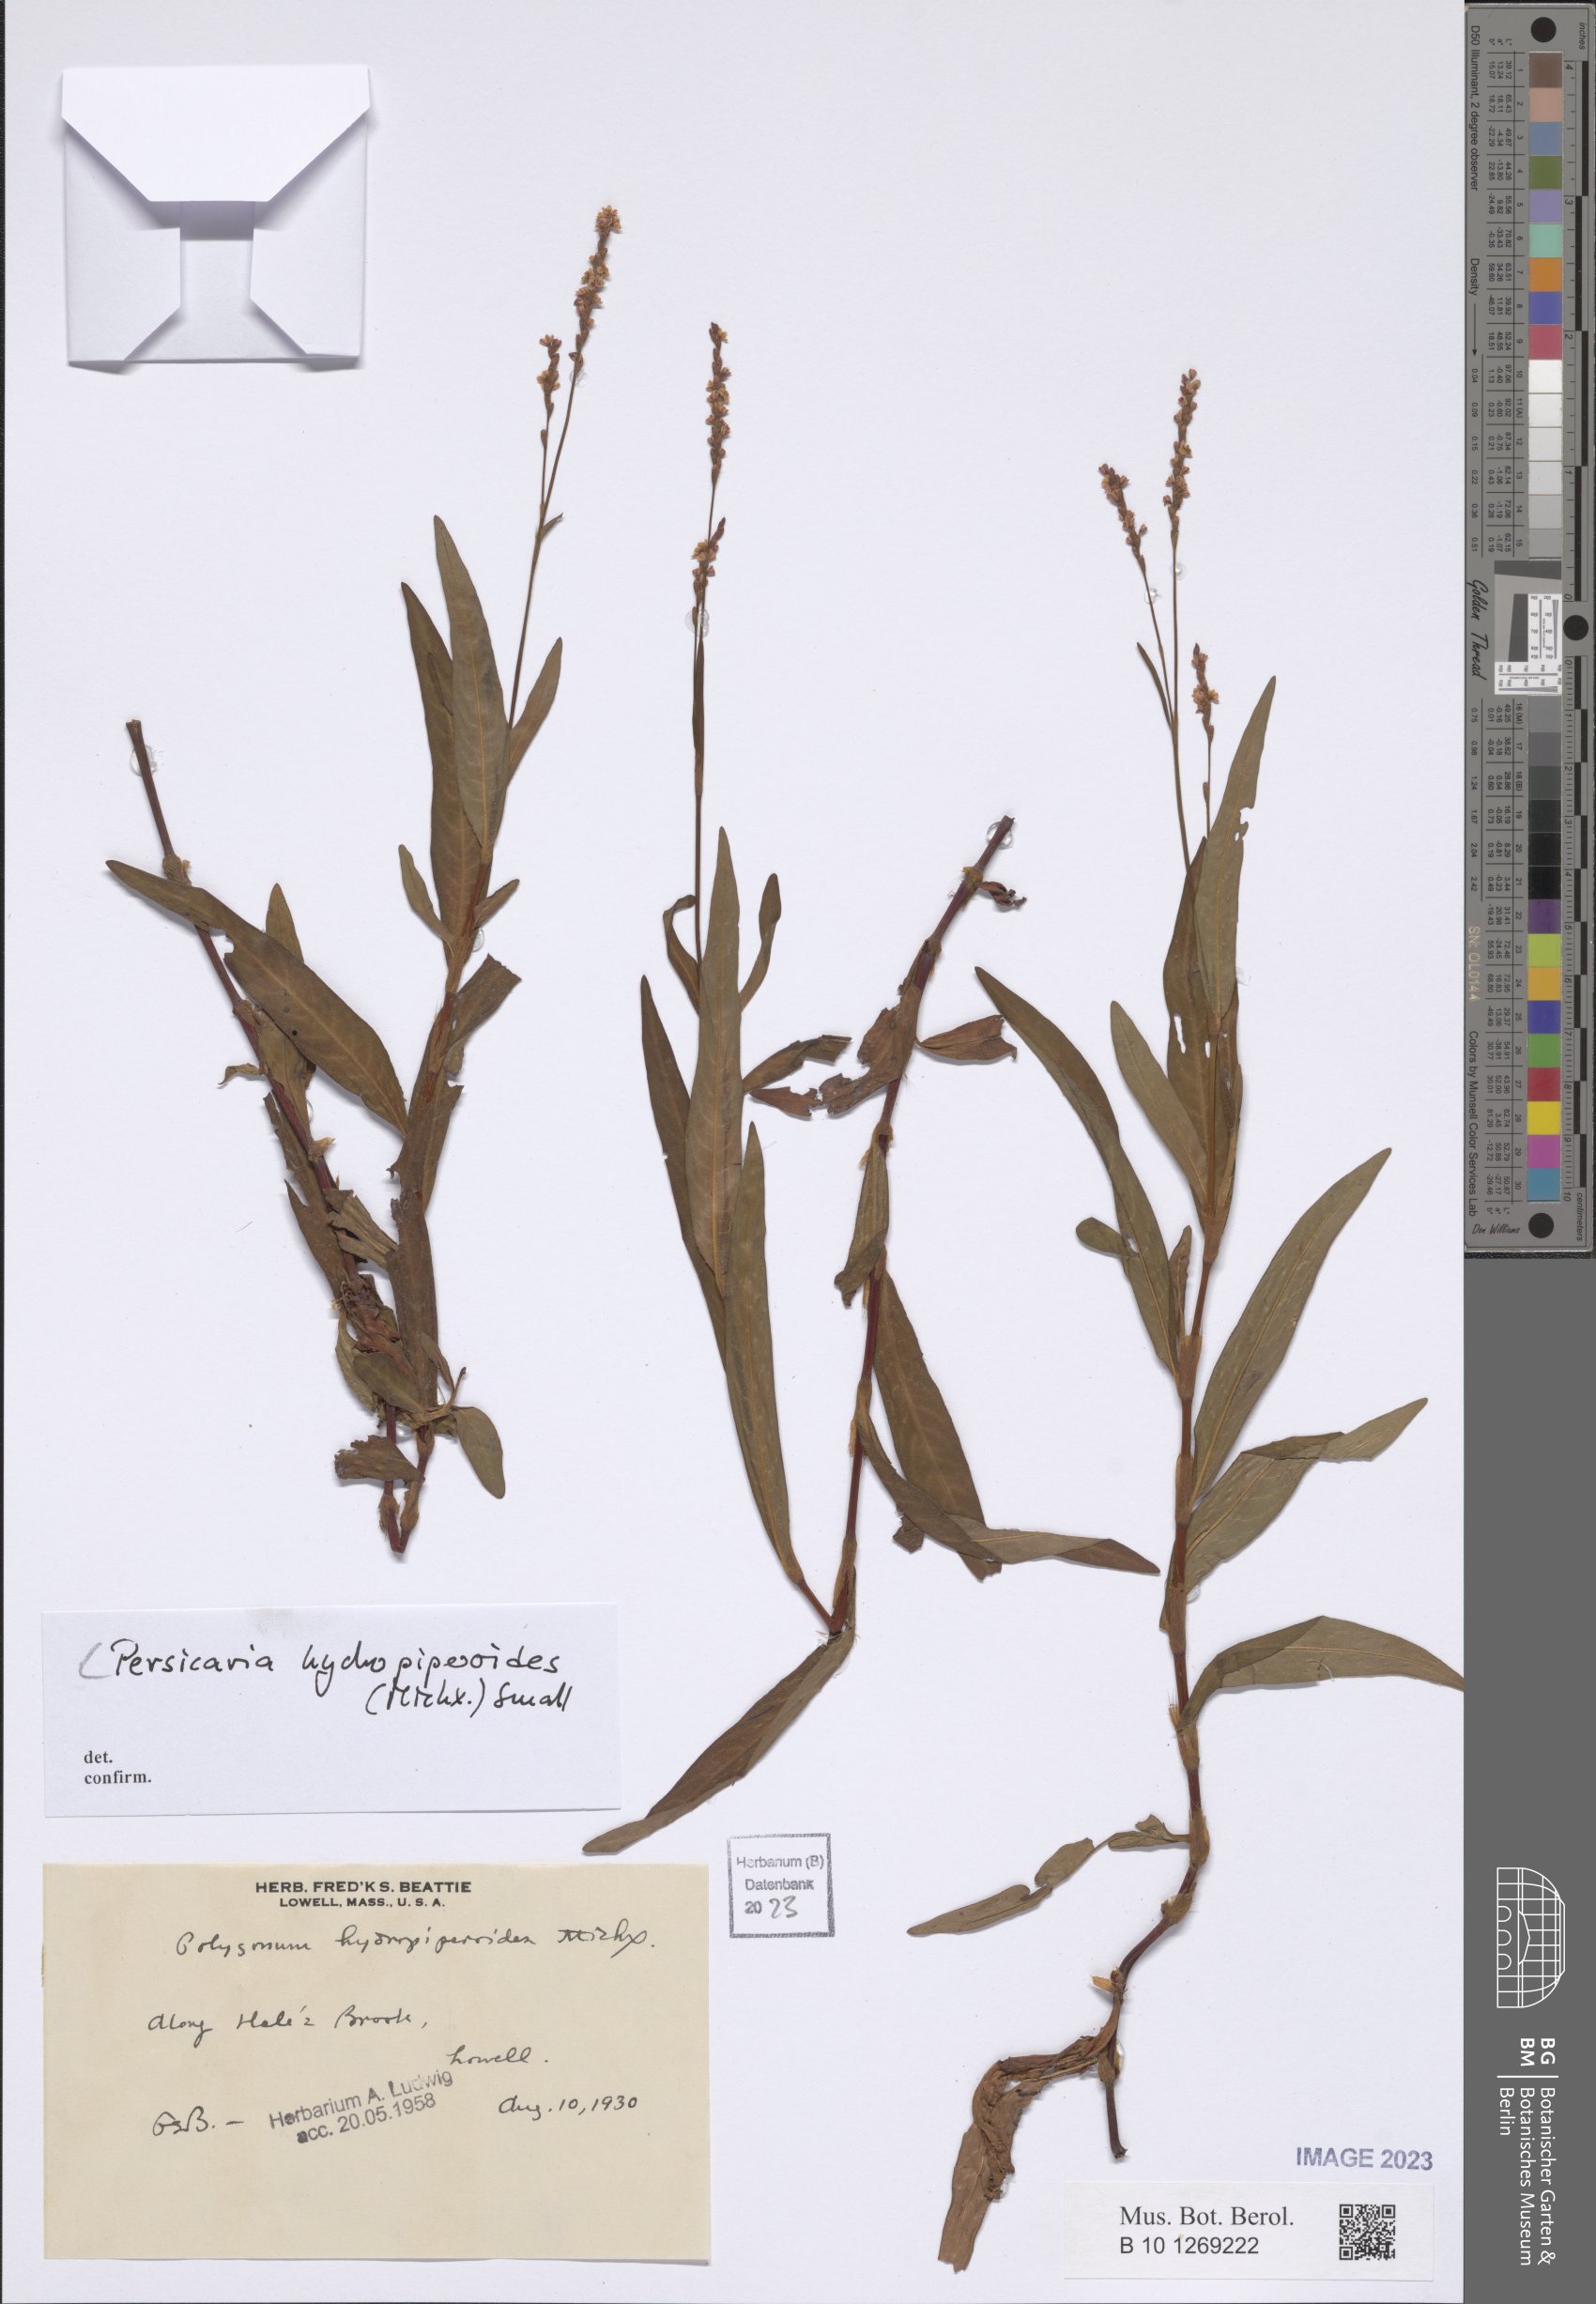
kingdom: Plantae
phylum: Tracheophyta
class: Magnoliopsida
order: Caryophyllales
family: Polygonaceae
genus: Persicaria
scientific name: Persicaria hydropiperoides
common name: Swamp smartweed
